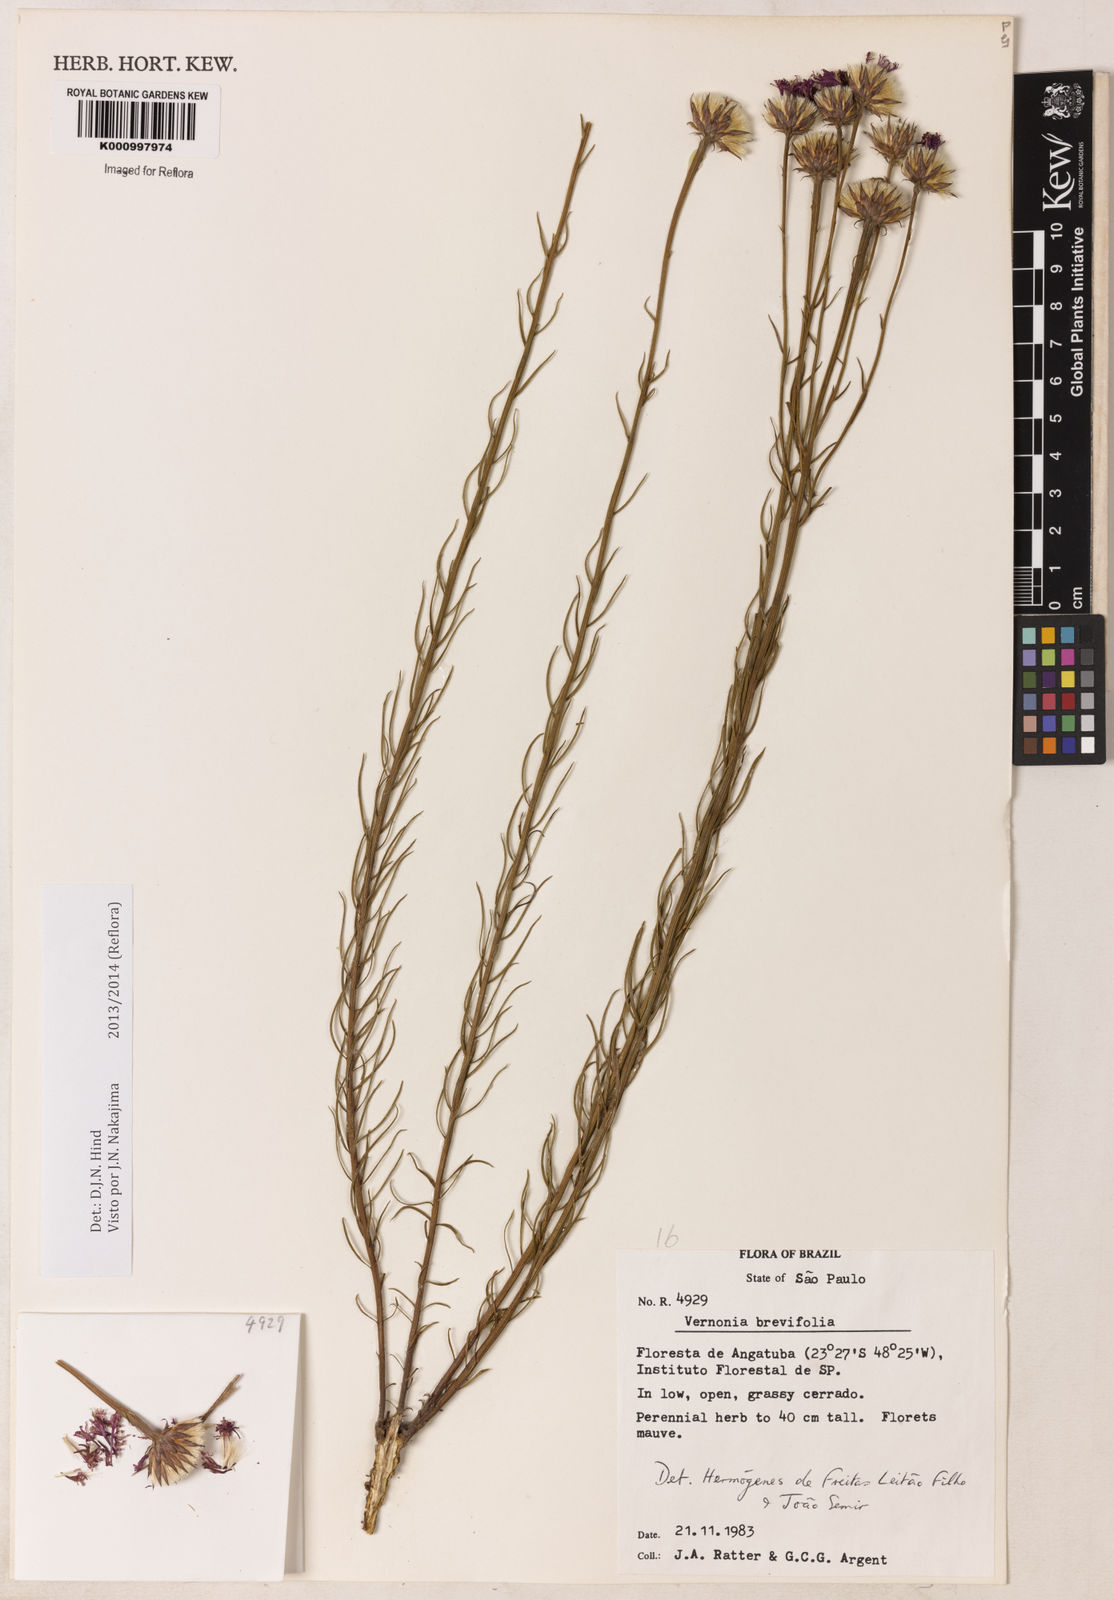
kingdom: Plantae
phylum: Tracheophyta
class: Magnoliopsida
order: Asterales
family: Asteraceae
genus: Lessingianthus
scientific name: Lessingianthus brevifolius
